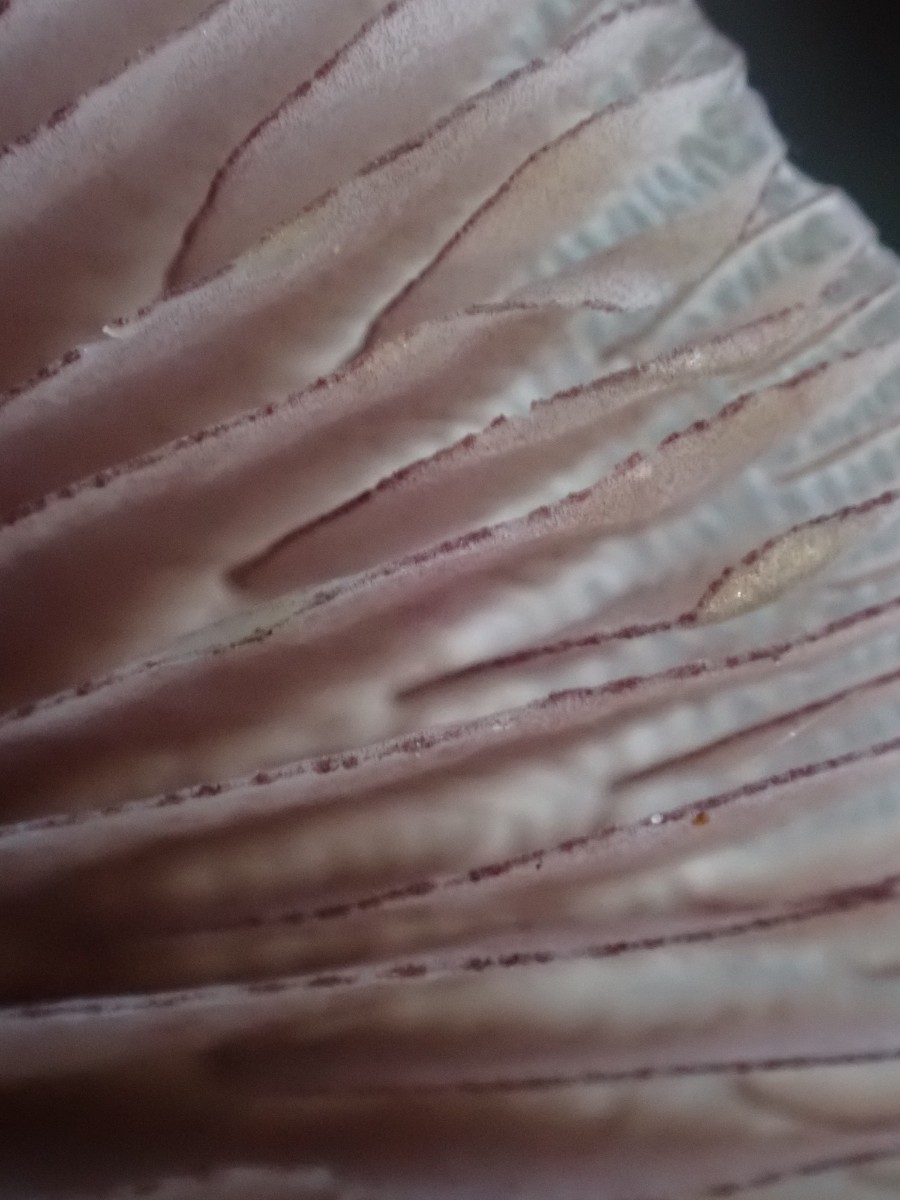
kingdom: Fungi
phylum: Basidiomycota
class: Agaricomycetes
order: Agaricales
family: Mycenaceae
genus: Mycena
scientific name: Mycena pelianthina
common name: mørkbladet huesvamp
